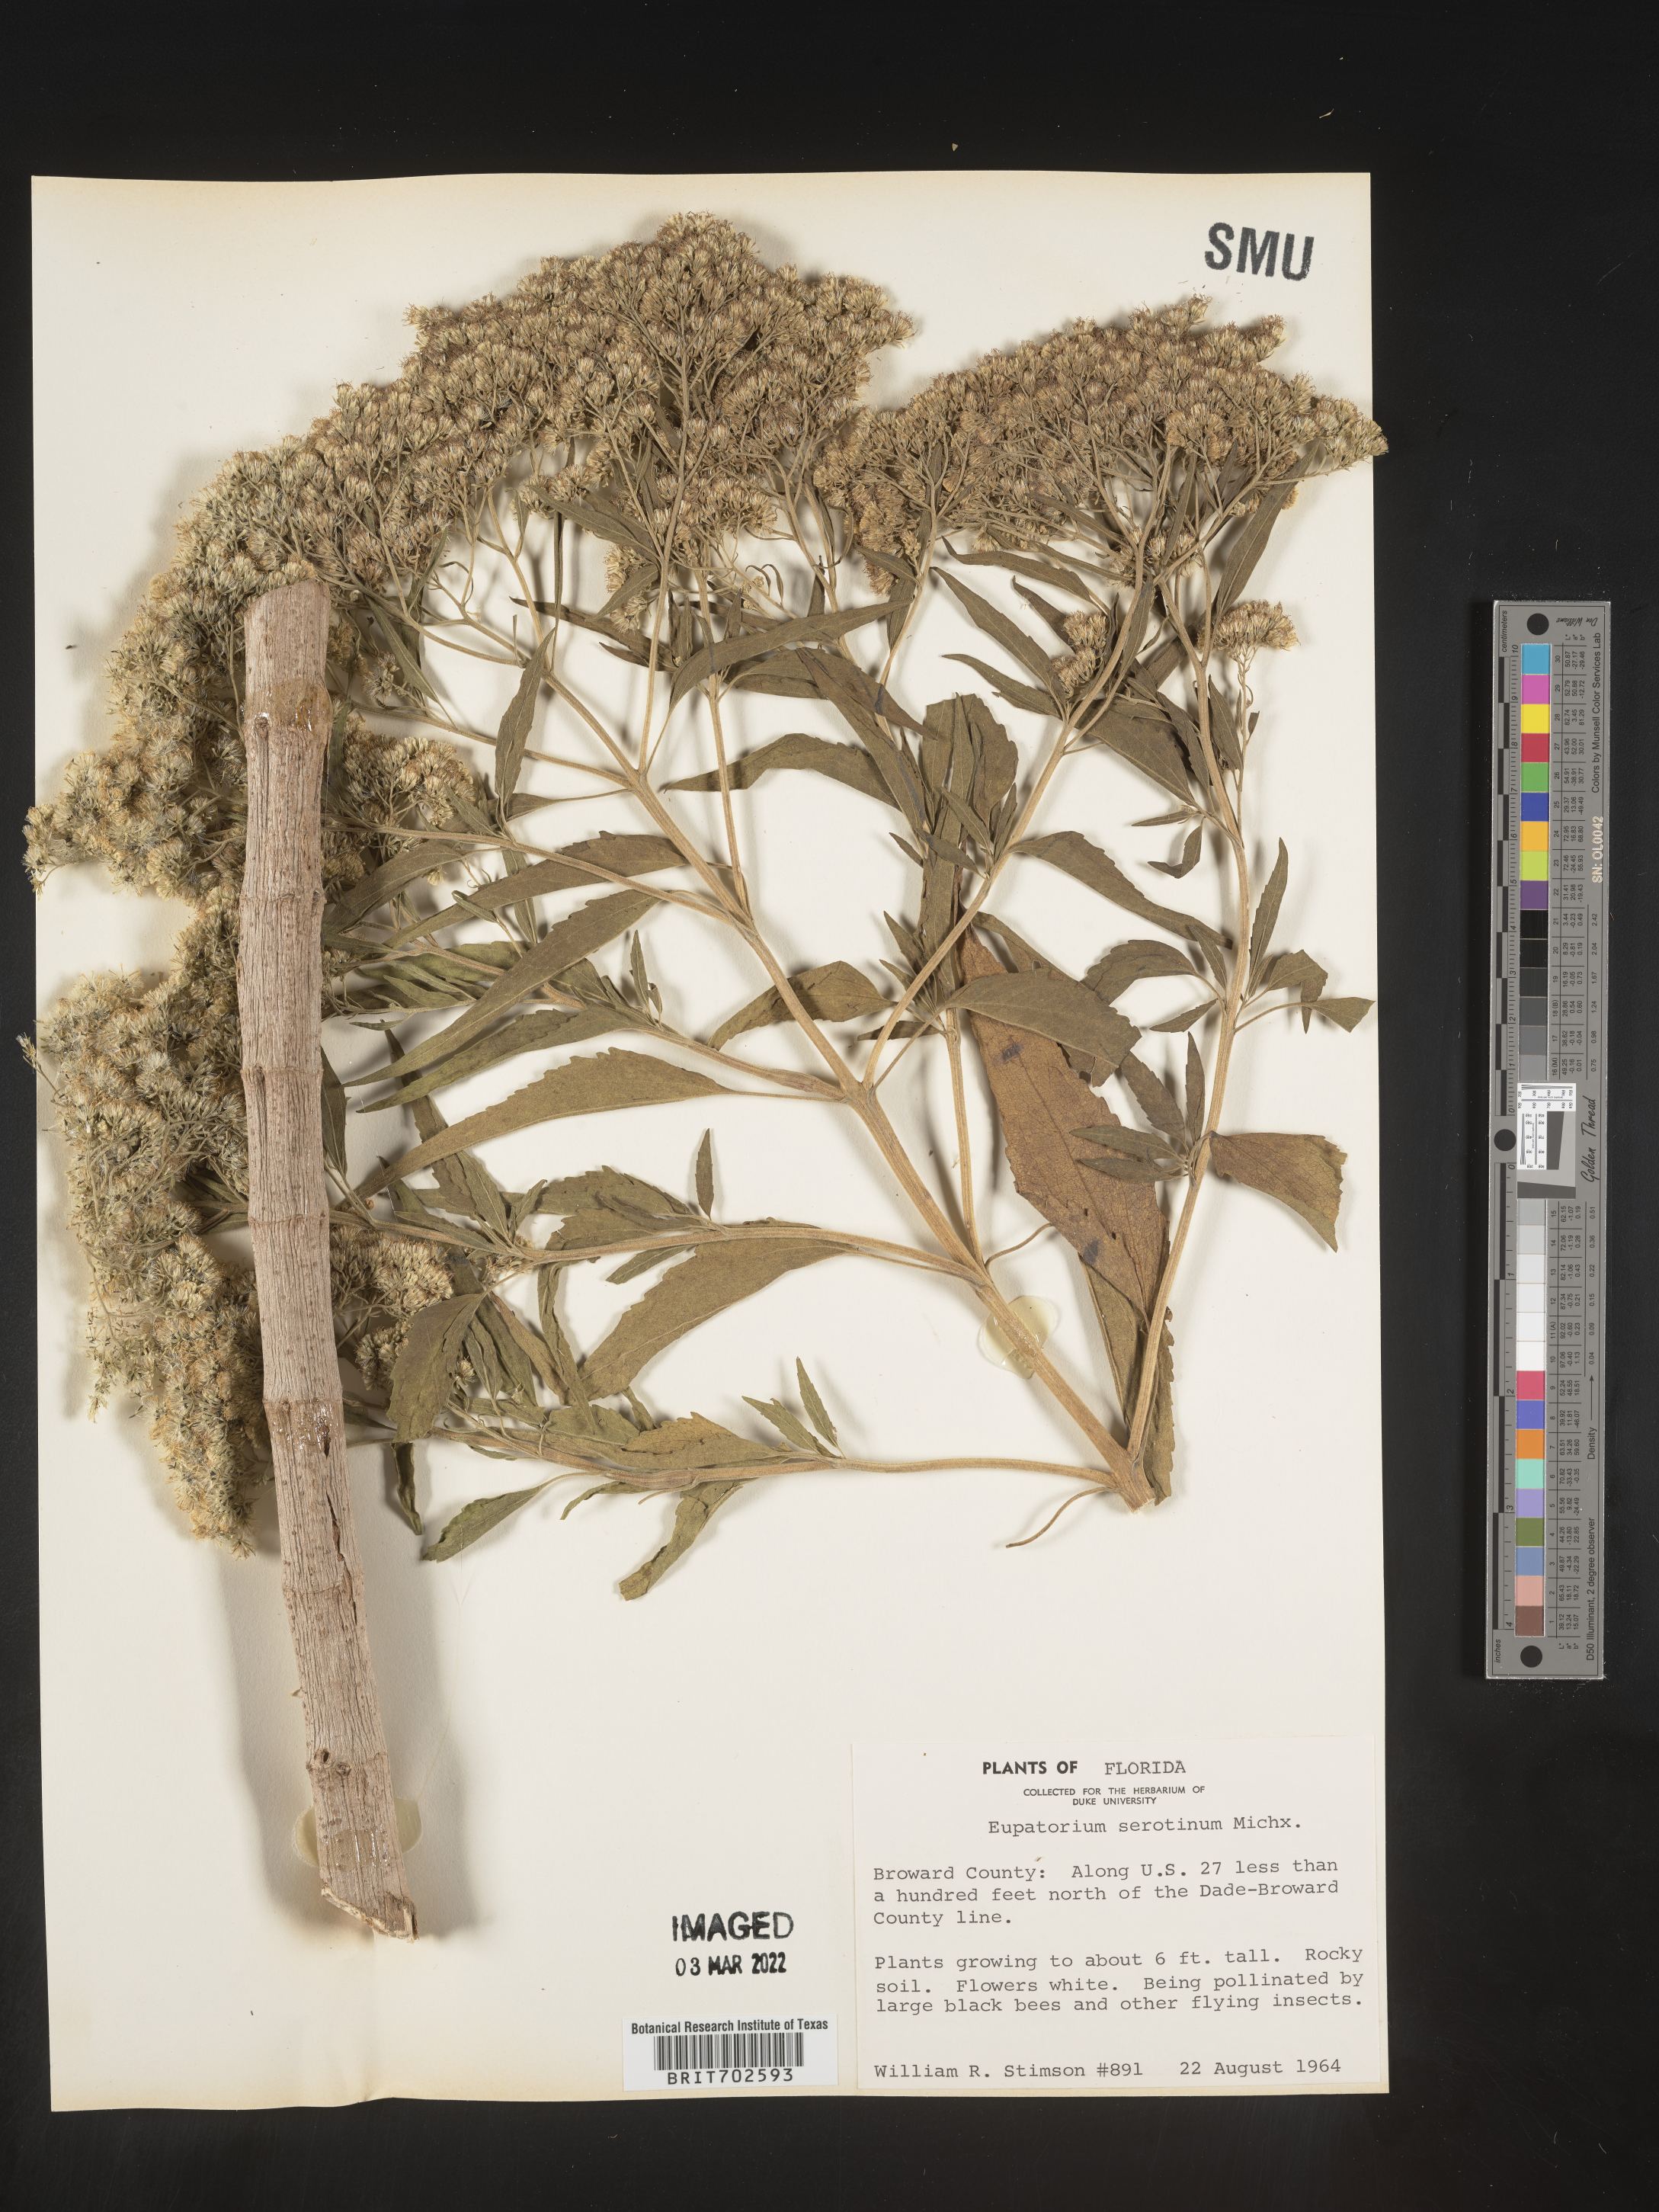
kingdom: Plantae
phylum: Tracheophyta
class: Magnoliopsida
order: Asterales
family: Asteraceae
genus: Eupatorium
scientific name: Eupatorium serotinum
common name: Late boneset
